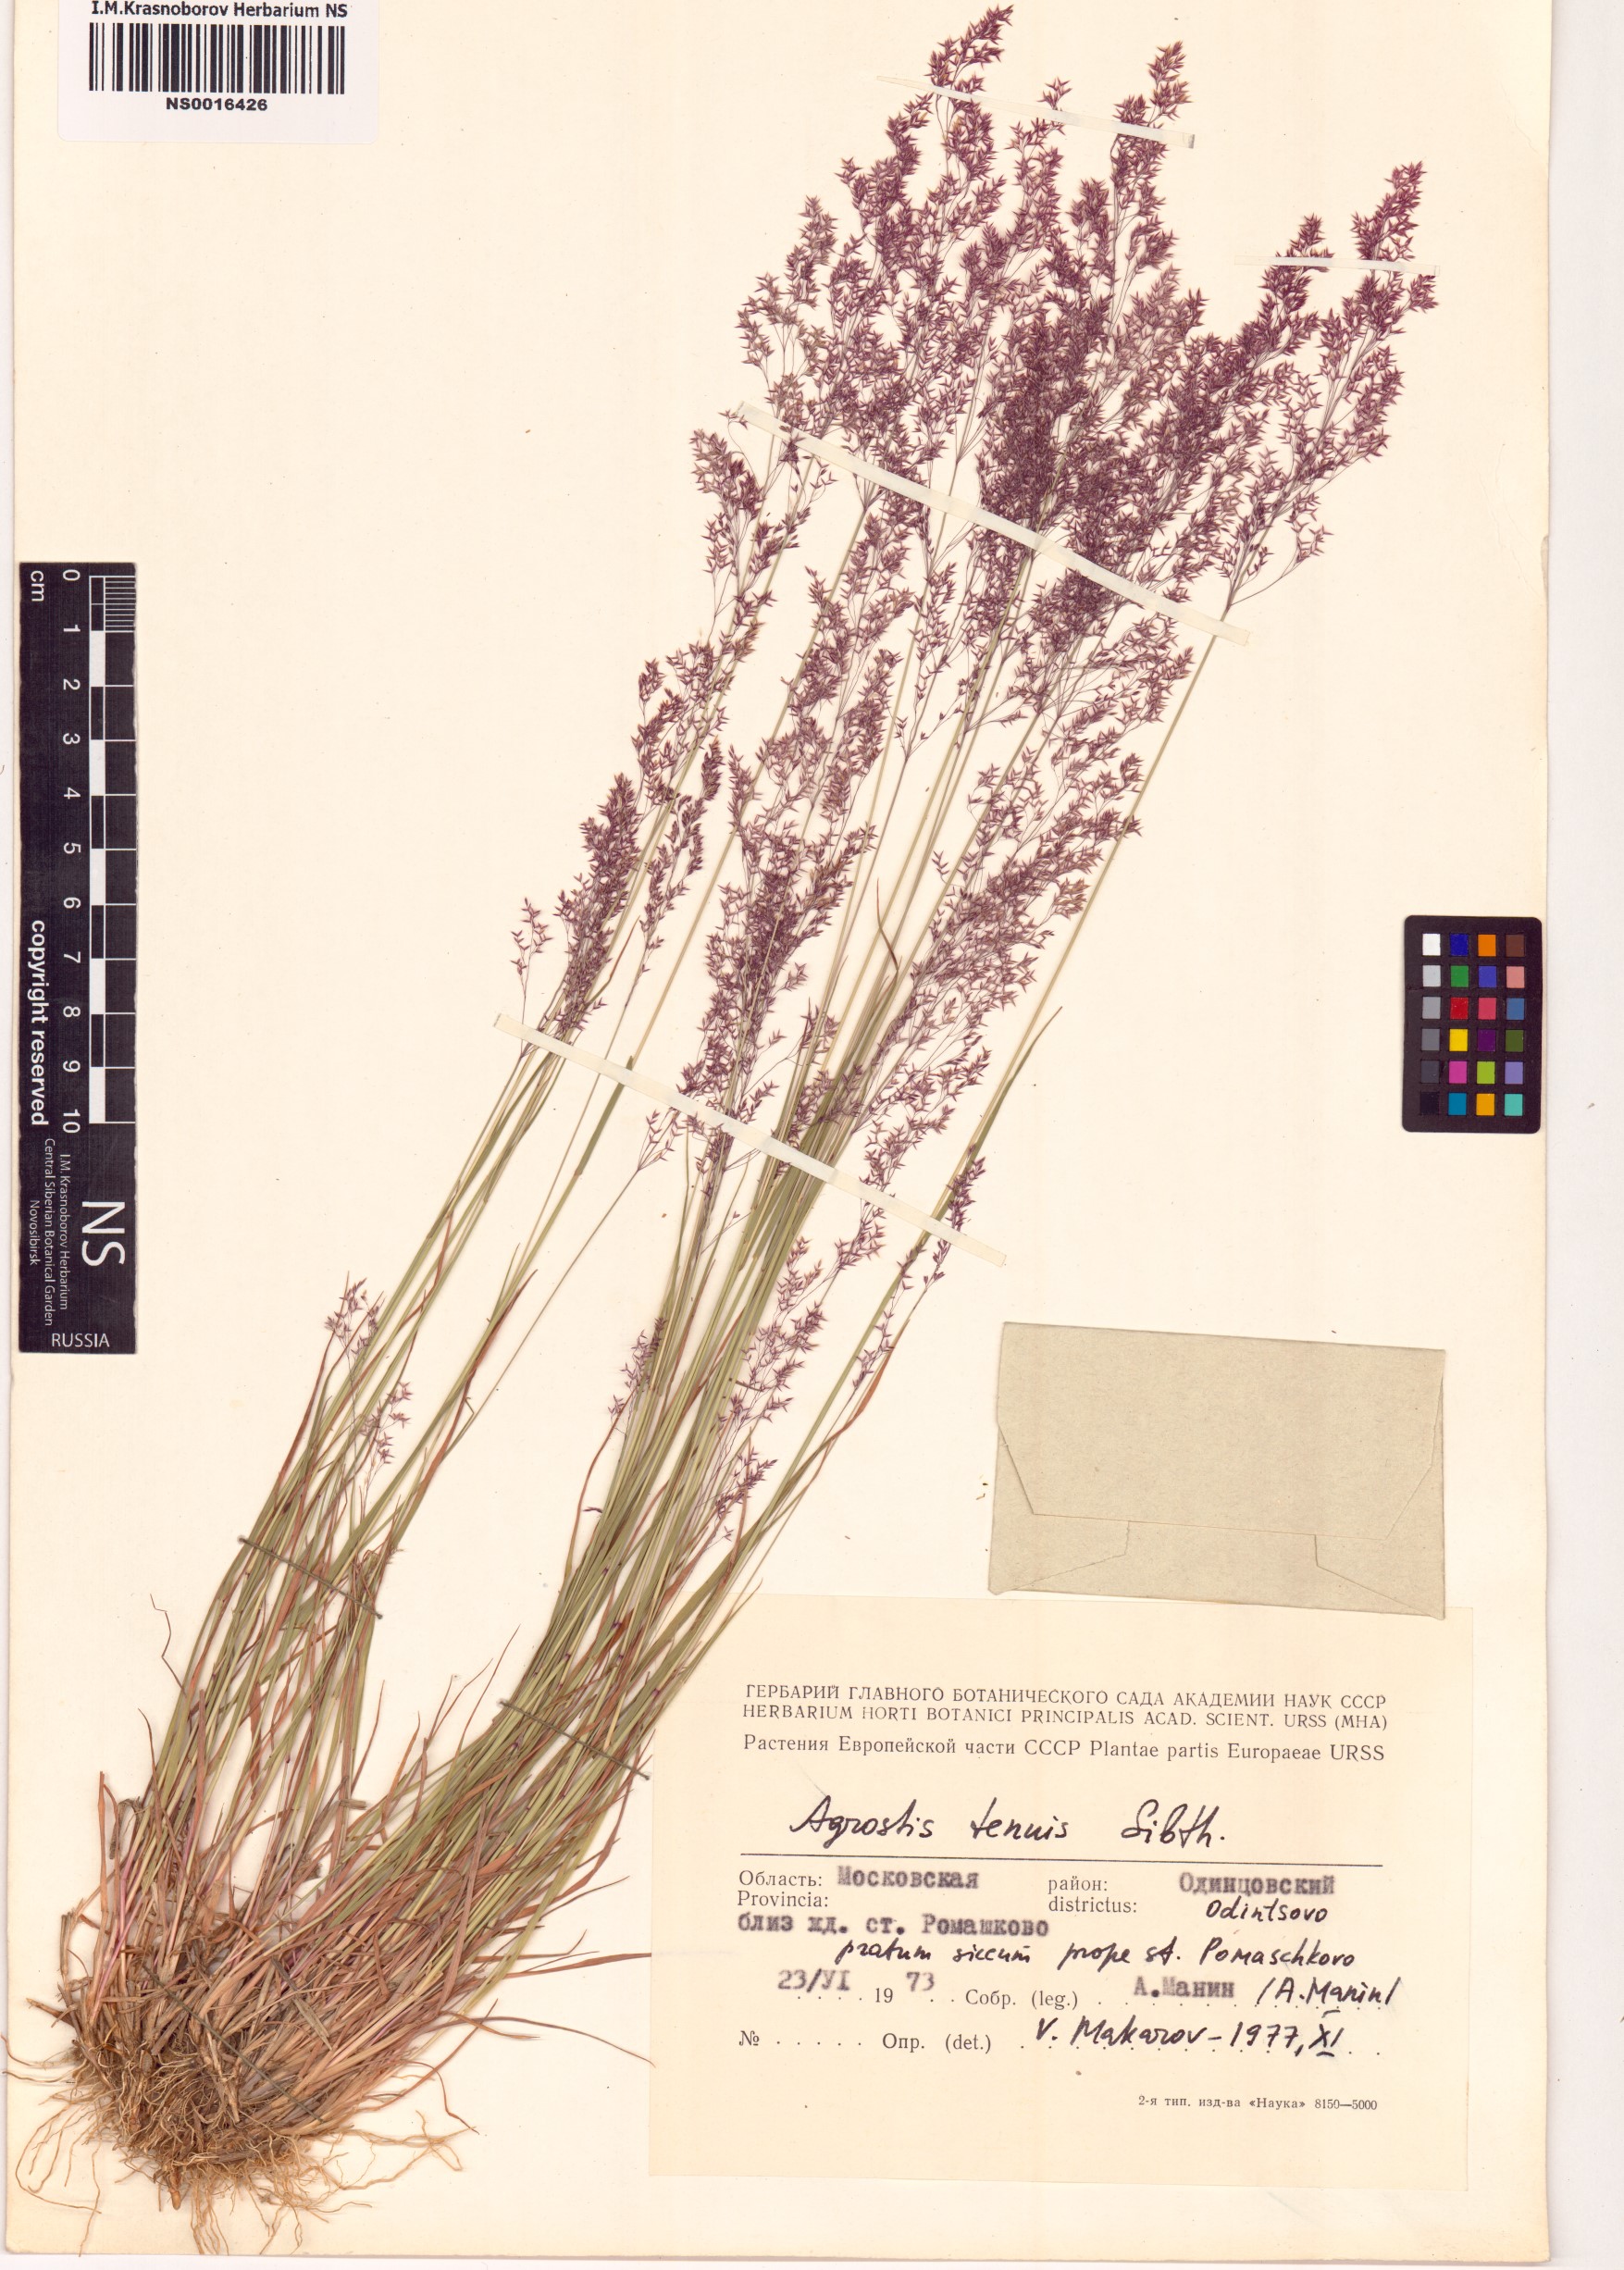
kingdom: Plantae
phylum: Tracheophyta
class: Liliopsida
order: Poales
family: Poaceae
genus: Agrostis
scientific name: Agrostis capillaris
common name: Colonial bentgrass
